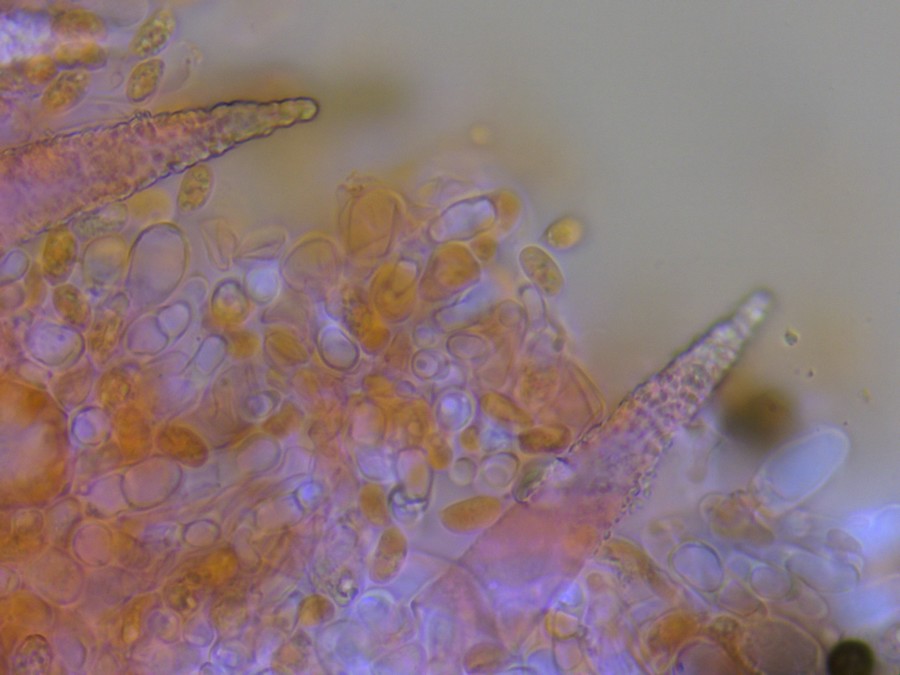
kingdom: Fungi
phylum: Basidiomycota
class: Agaricomycetes
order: Hymenochaetales
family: Rickenellaceae
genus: Peniophorella
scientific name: Peniophorella pubera
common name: dunet kalkskind
